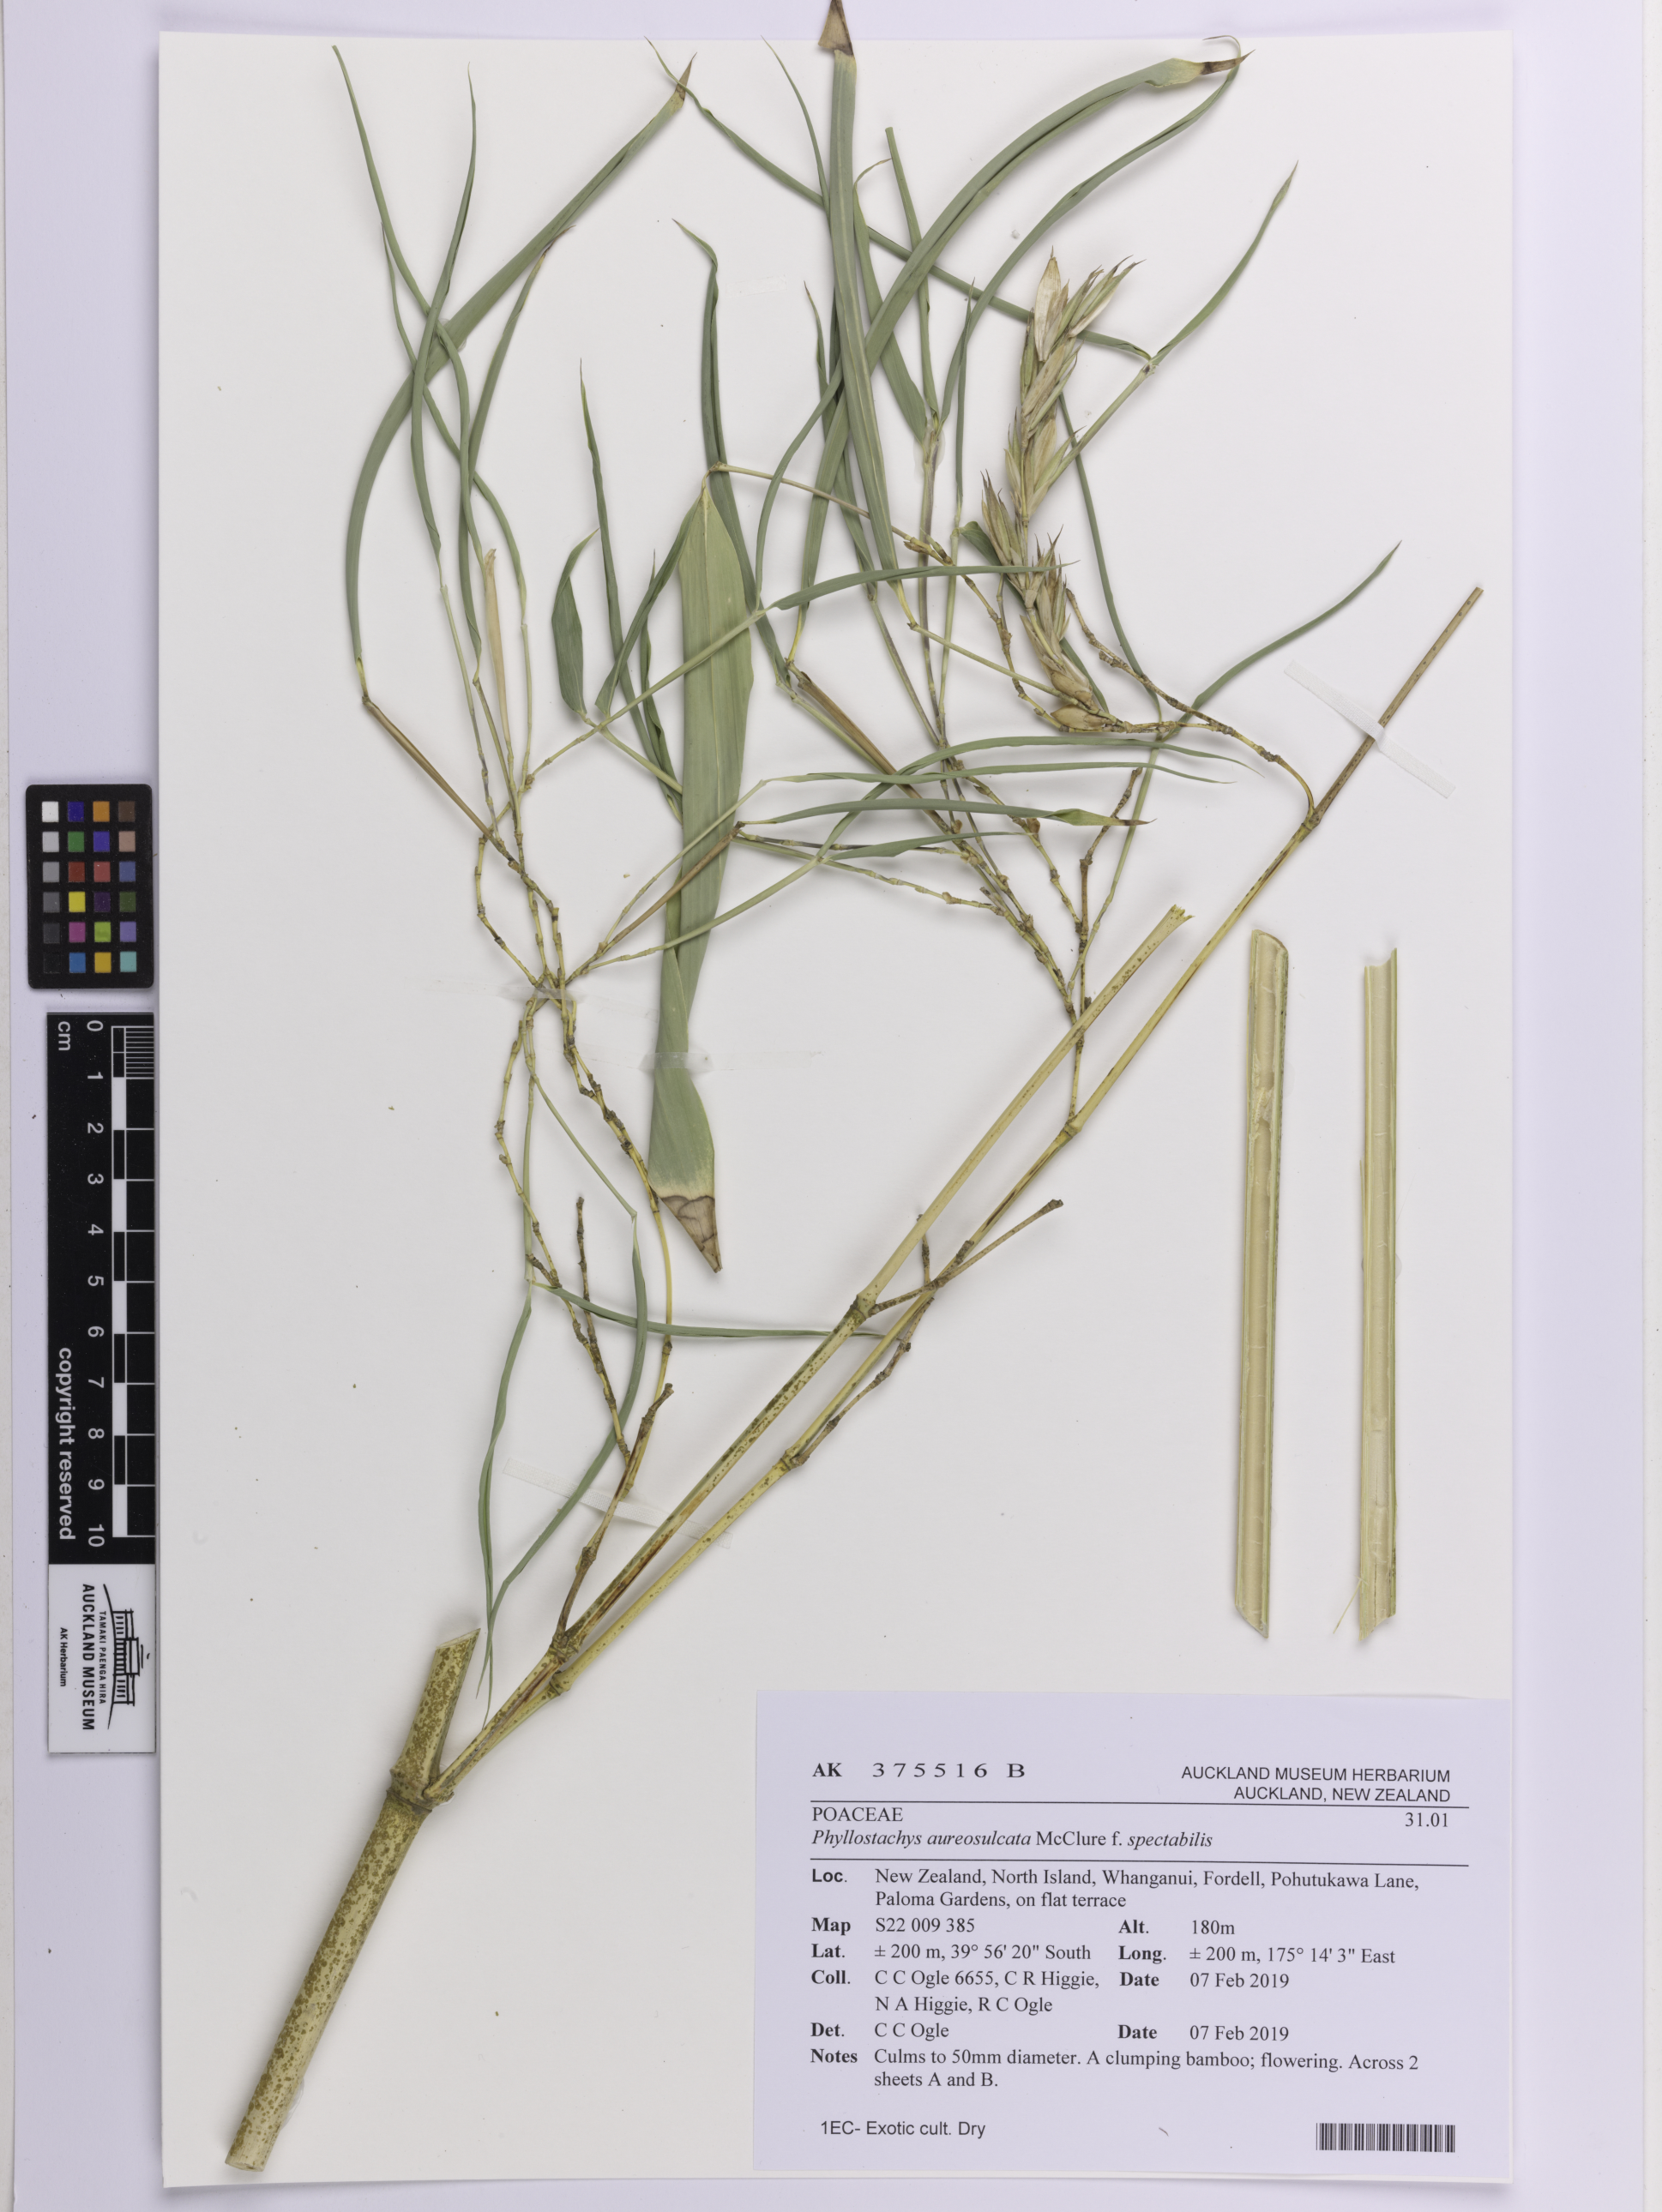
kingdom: Plantae
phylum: Tracheophyta
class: Liliopsida
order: Poales
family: Poaceae
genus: Phyllostachys
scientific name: Phyllostachys aureosulcata
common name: Yellow groove bamboo
